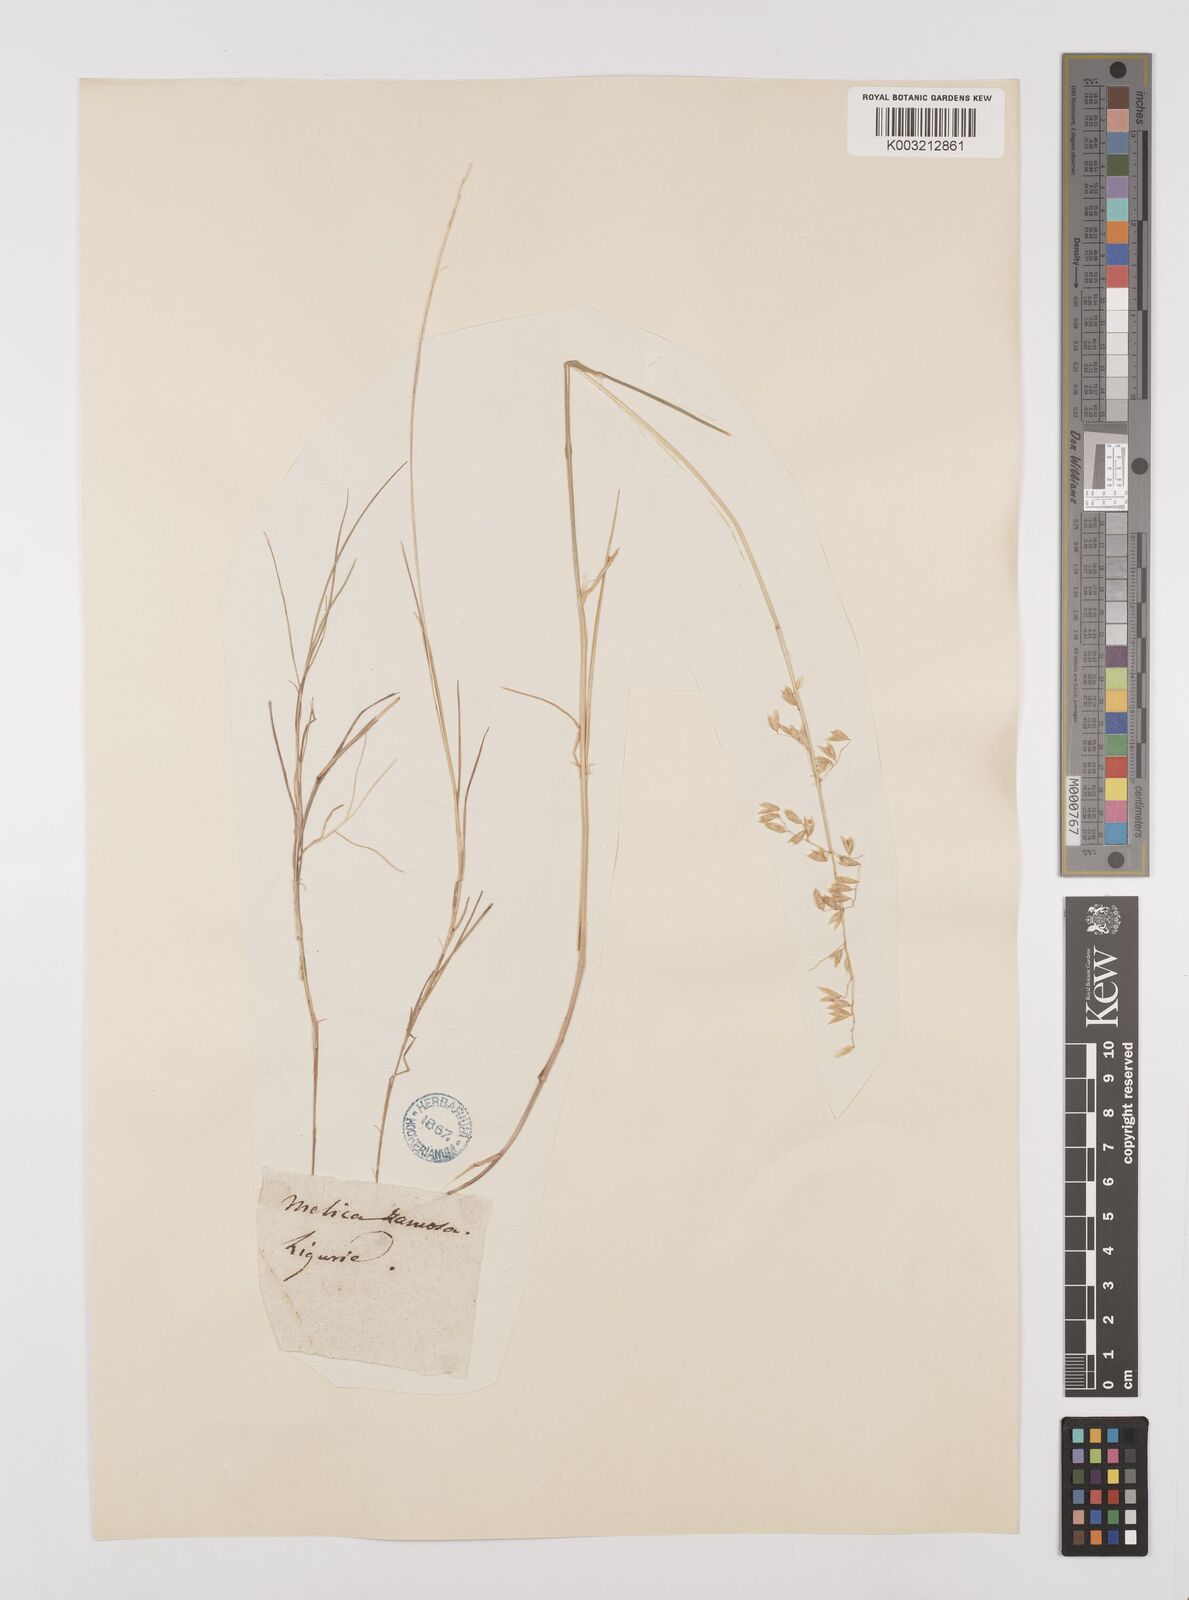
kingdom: Plantae
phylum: Tracheophyta
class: Liliopsida
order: Poales
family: Poaceae
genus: Melica
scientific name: Melica minuta
